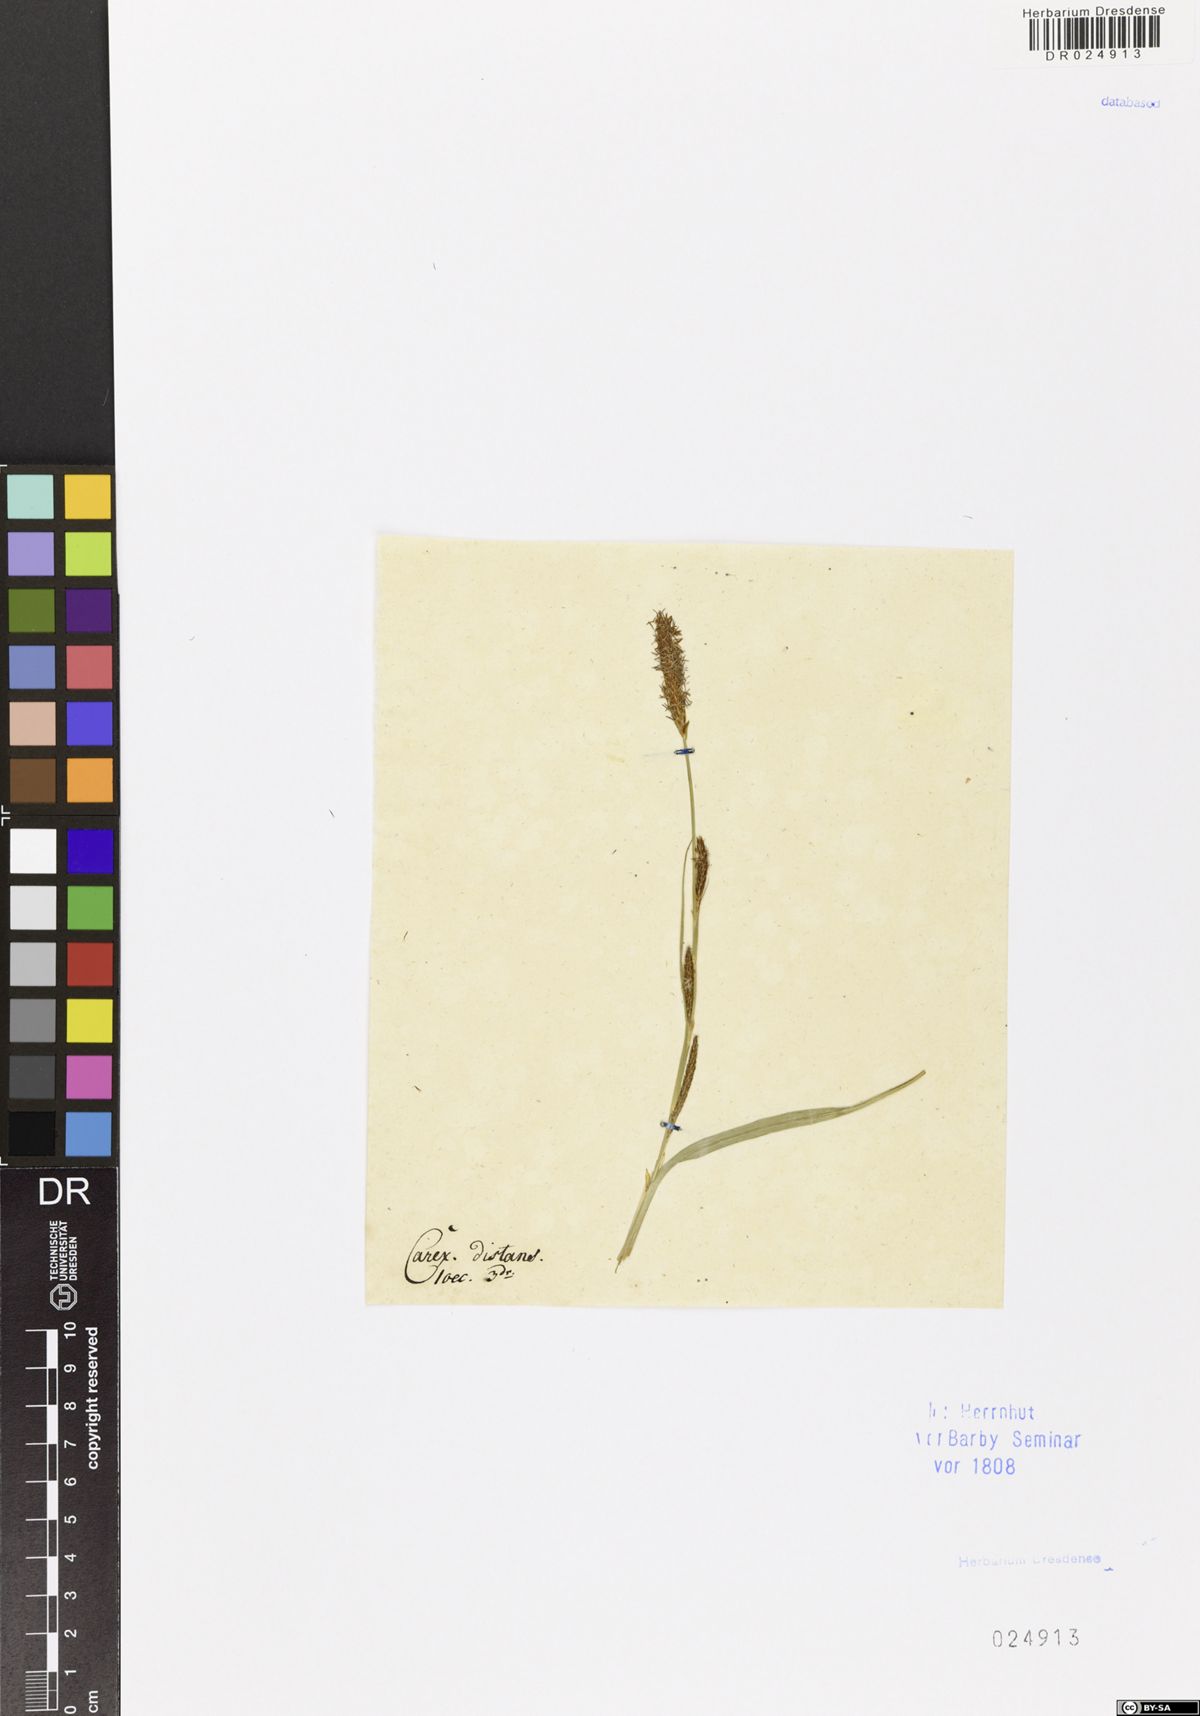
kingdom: Plantae
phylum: Tracheophyta
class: Liliopsida
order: Poales
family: Cyperaceae
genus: Carex
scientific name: Carex distans
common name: Distant sedge
